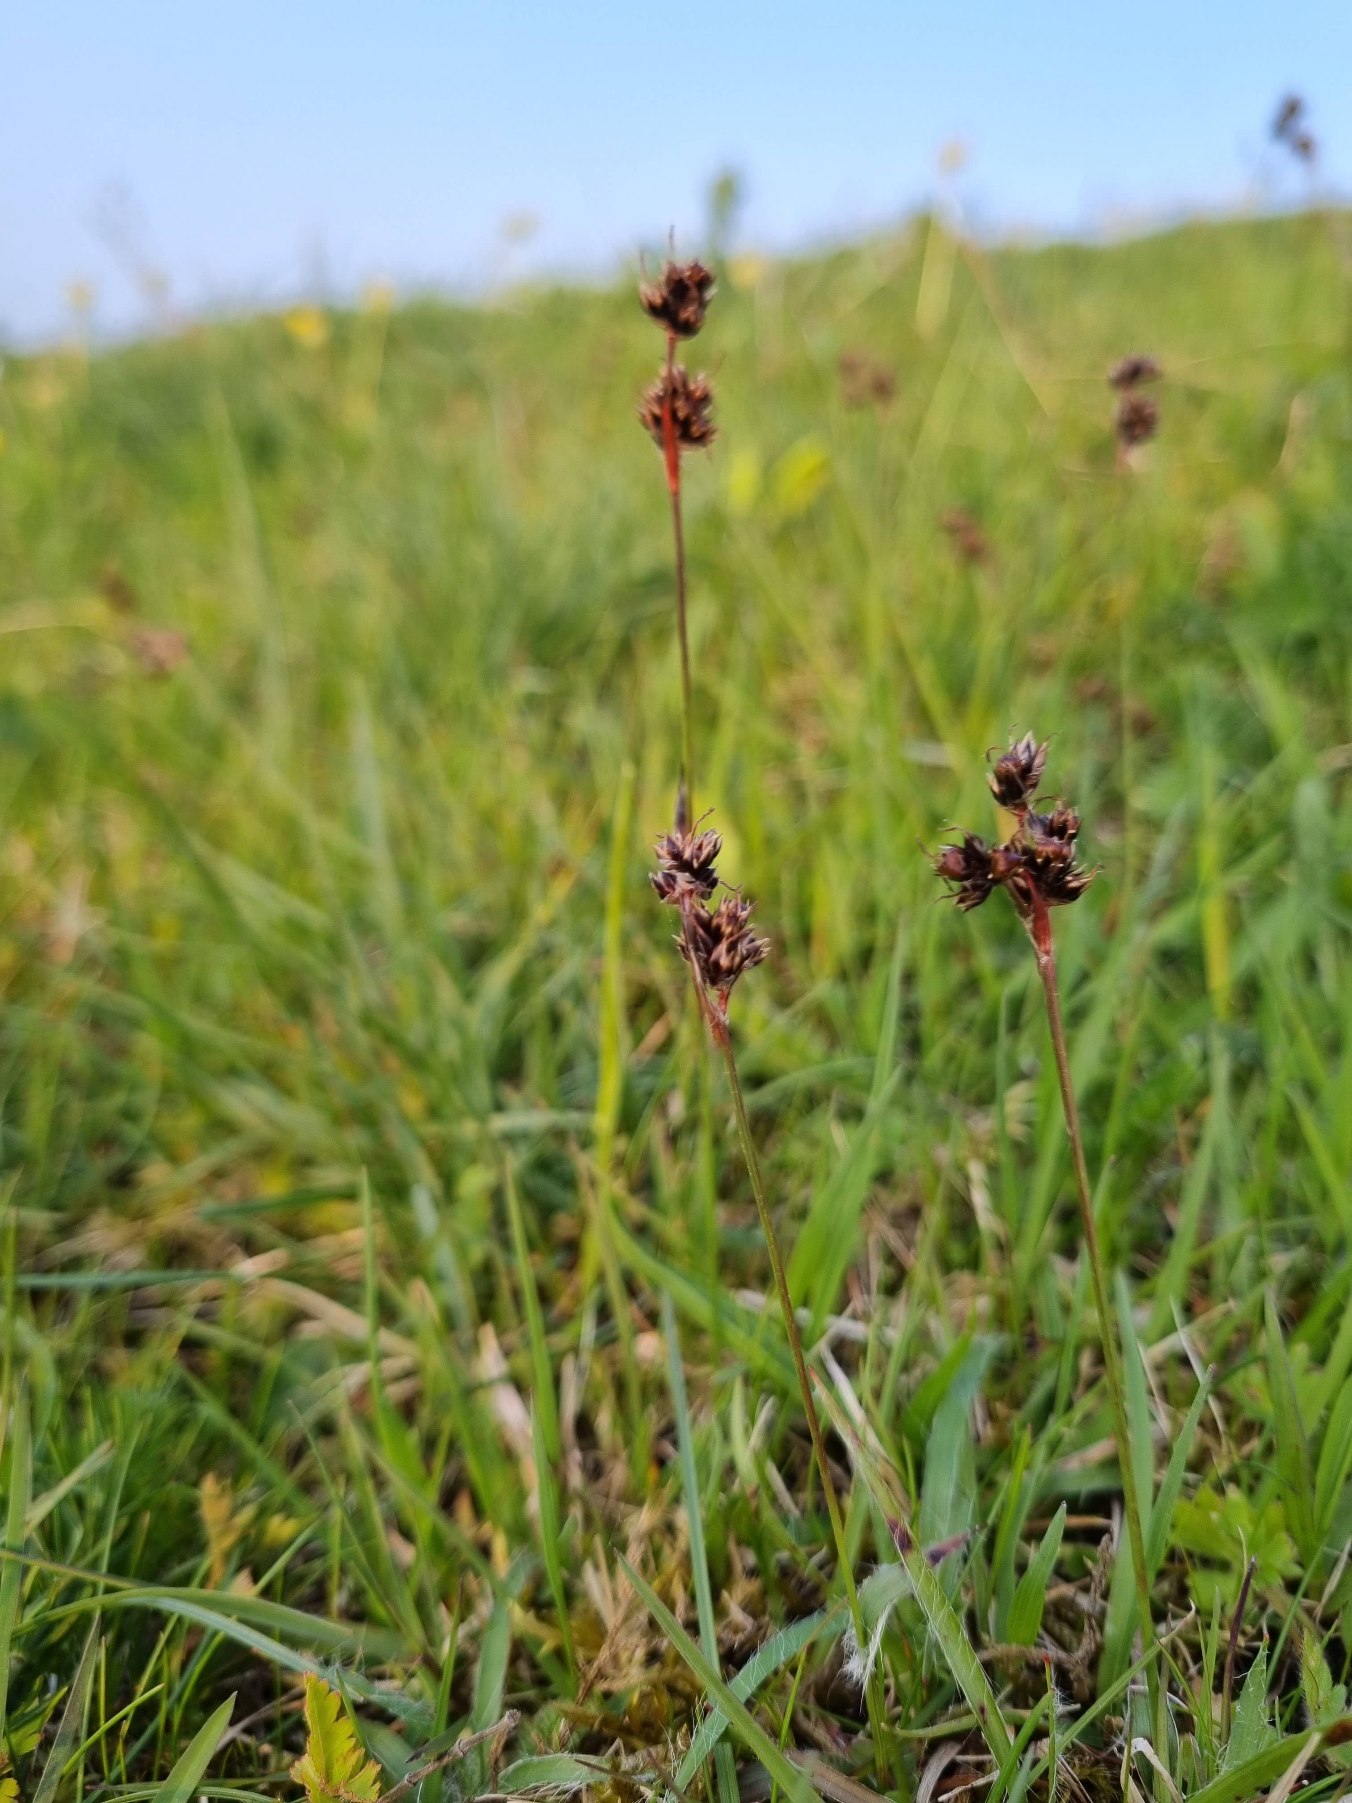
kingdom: Plantae
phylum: Tracheophyta
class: Liliopsida
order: Poales
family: Juncaceae
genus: Luzula
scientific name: Luzula campestris
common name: Mark-frytle
